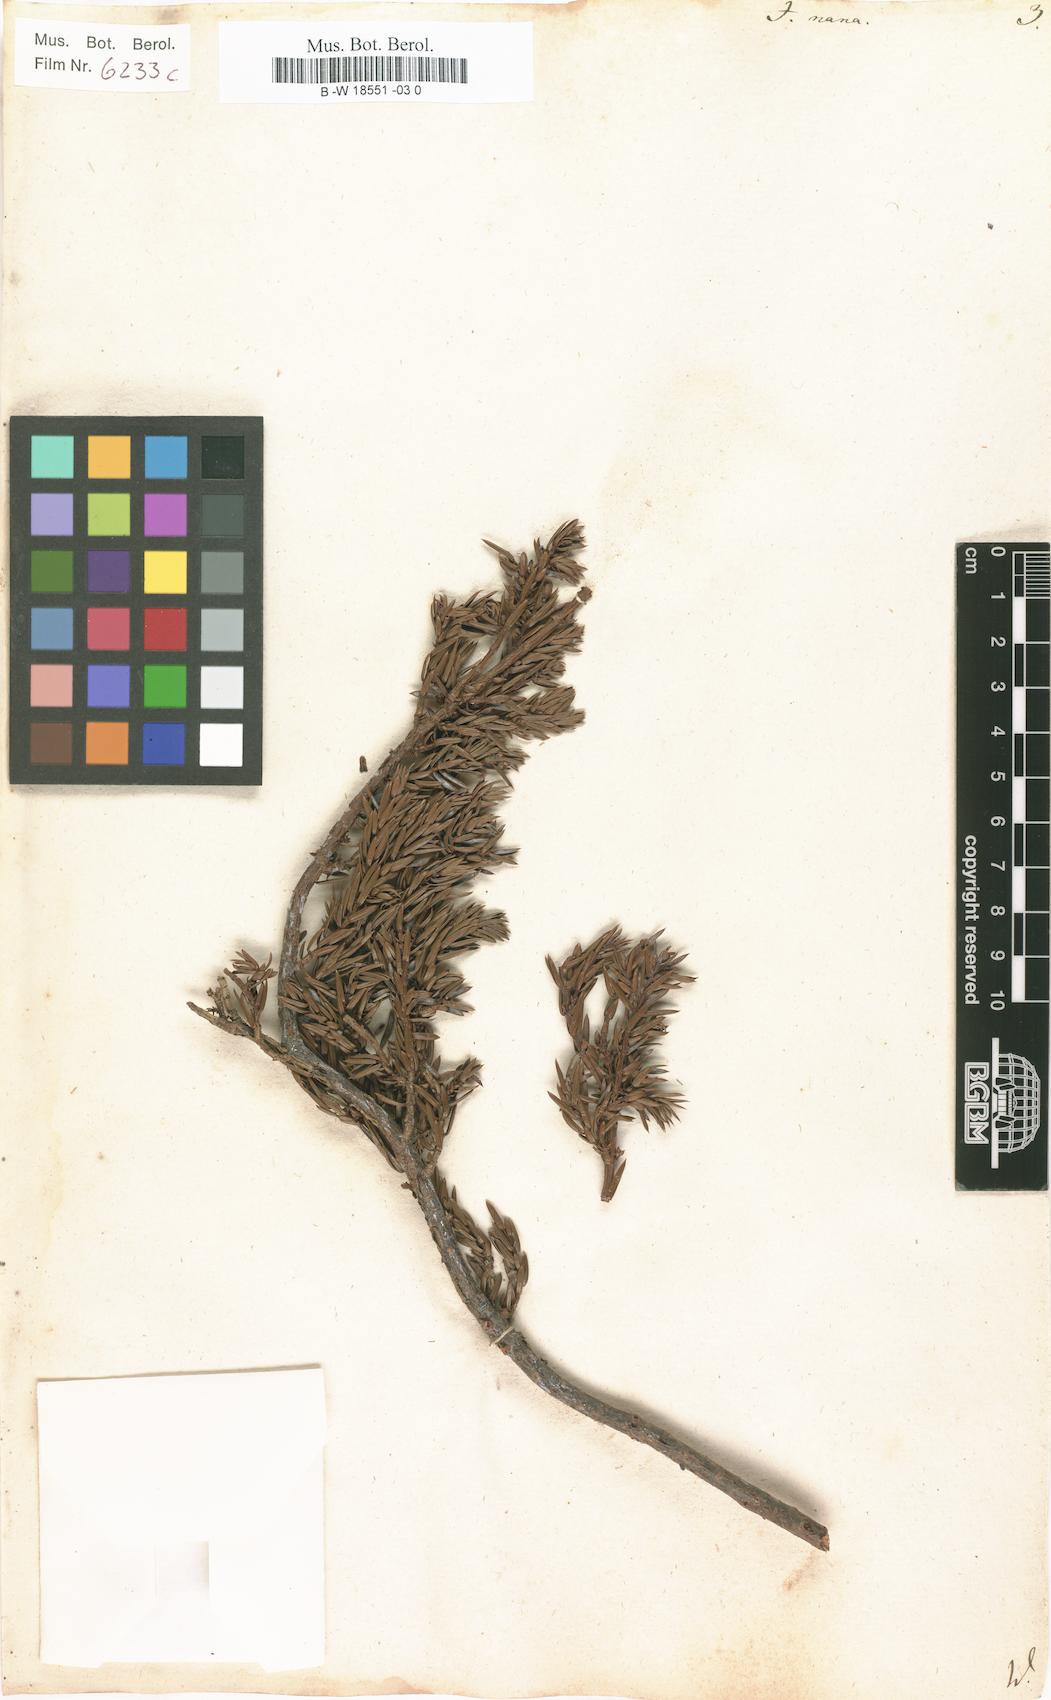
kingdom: Plantae
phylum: Tracheophyta
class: Pinopsida
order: Pinales
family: Cupressaceae
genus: Juniperus
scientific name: Juniperus communis
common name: Common juniper
